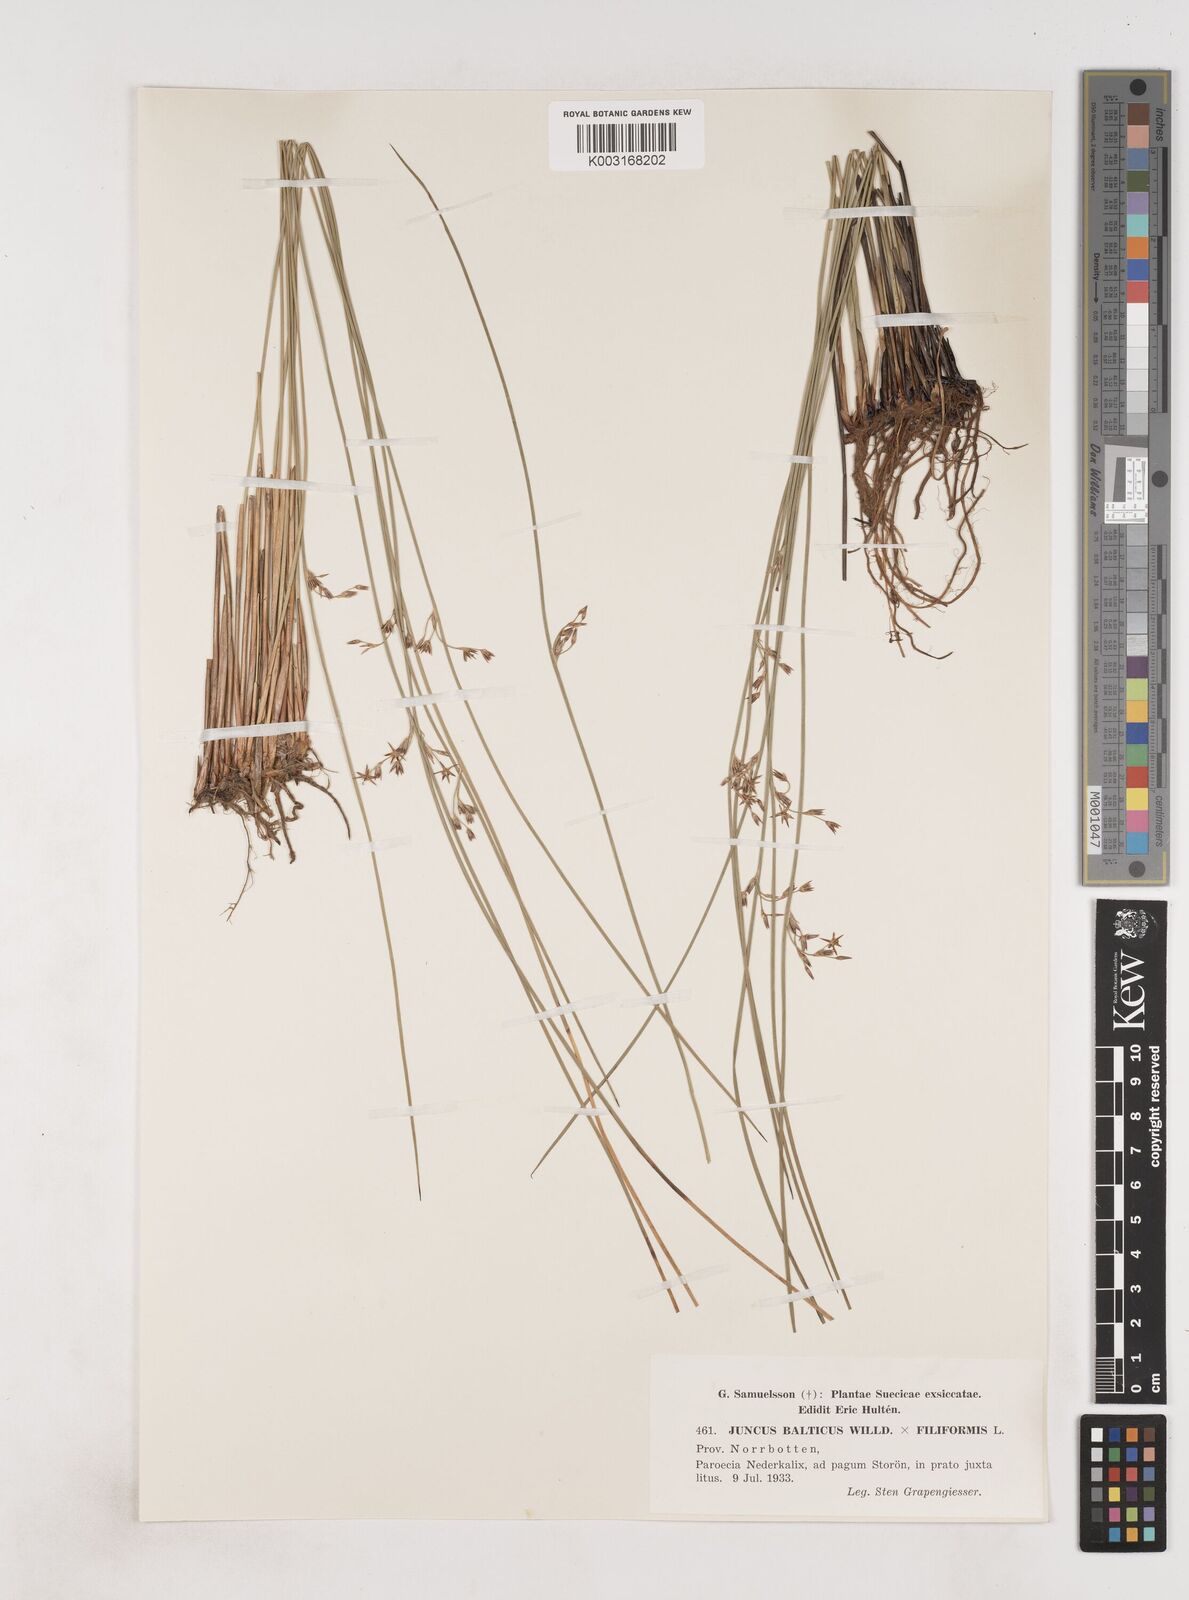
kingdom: Plantae
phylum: Tracheophyta
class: Liliopsida
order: Poales
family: Juncaceae
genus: Juncus
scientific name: Juncus balticus
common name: Baltic rush
